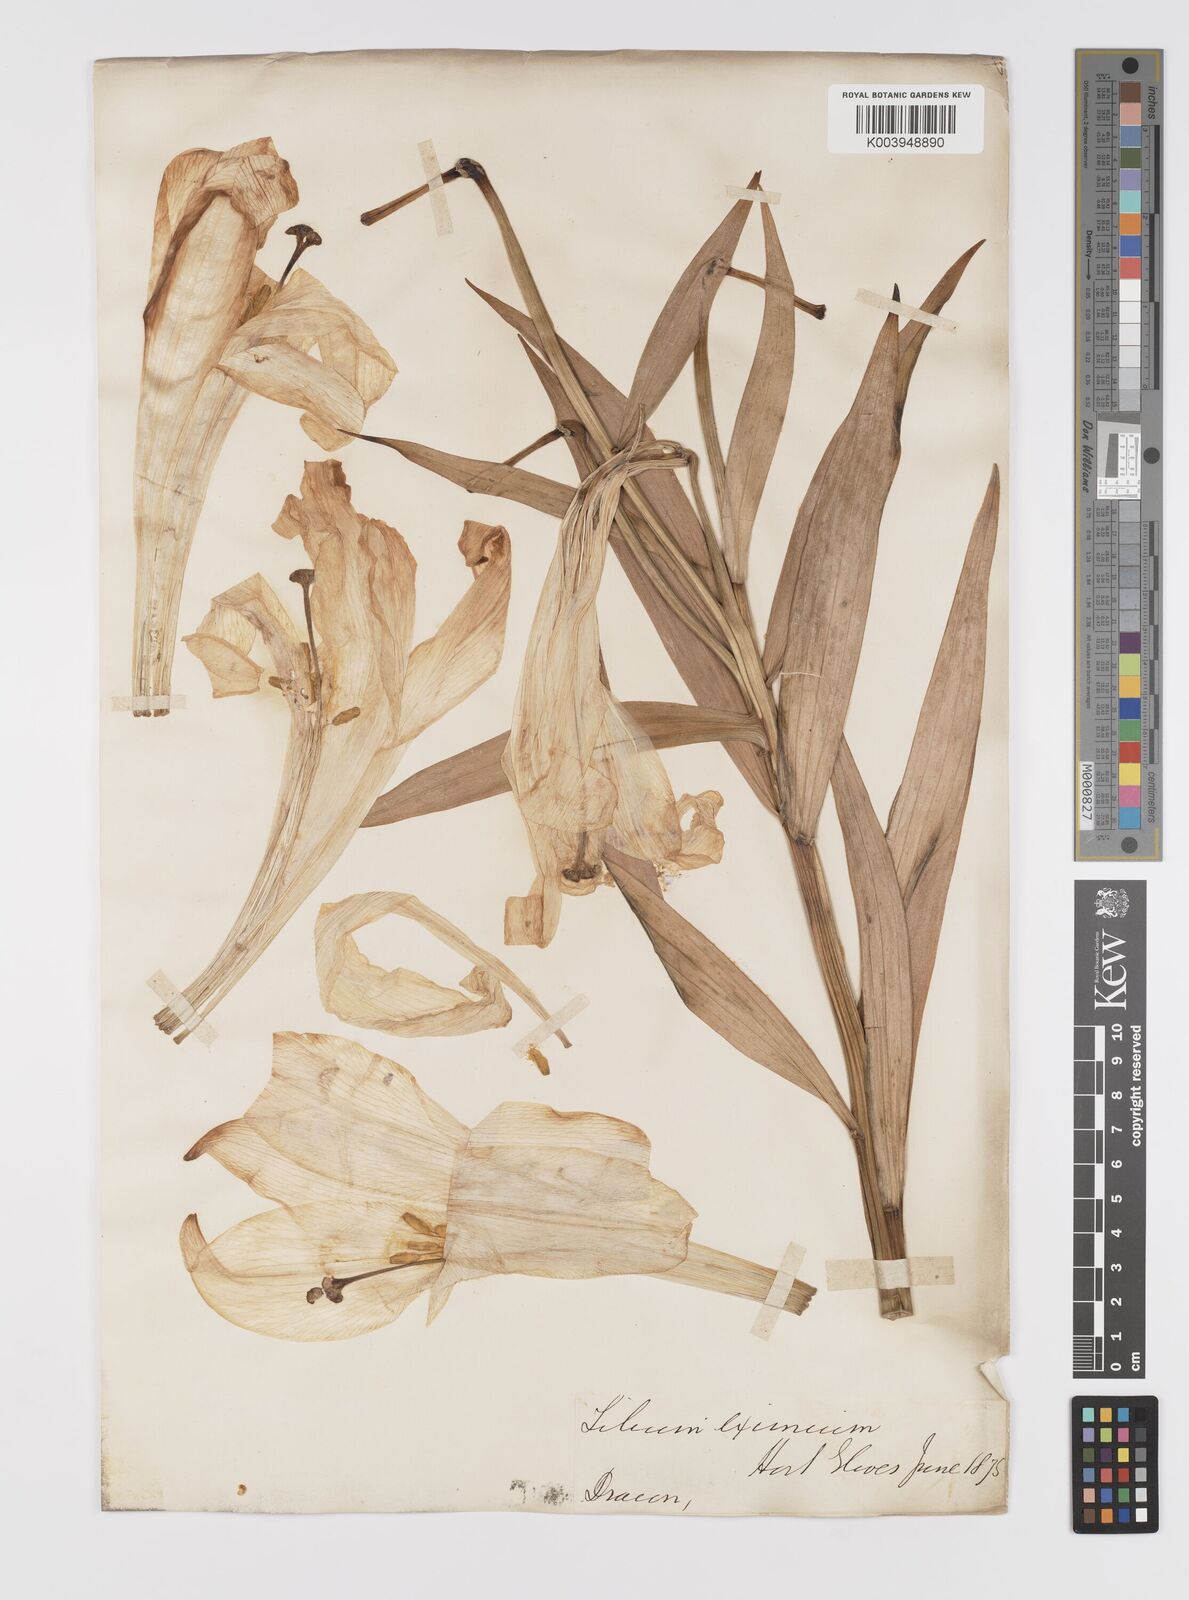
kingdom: Plantae
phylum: Tracheophyta
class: Liliopsida
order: Liliales
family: Liliaceae
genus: Lilium
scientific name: Lilium longiflorum
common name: Easter lily
